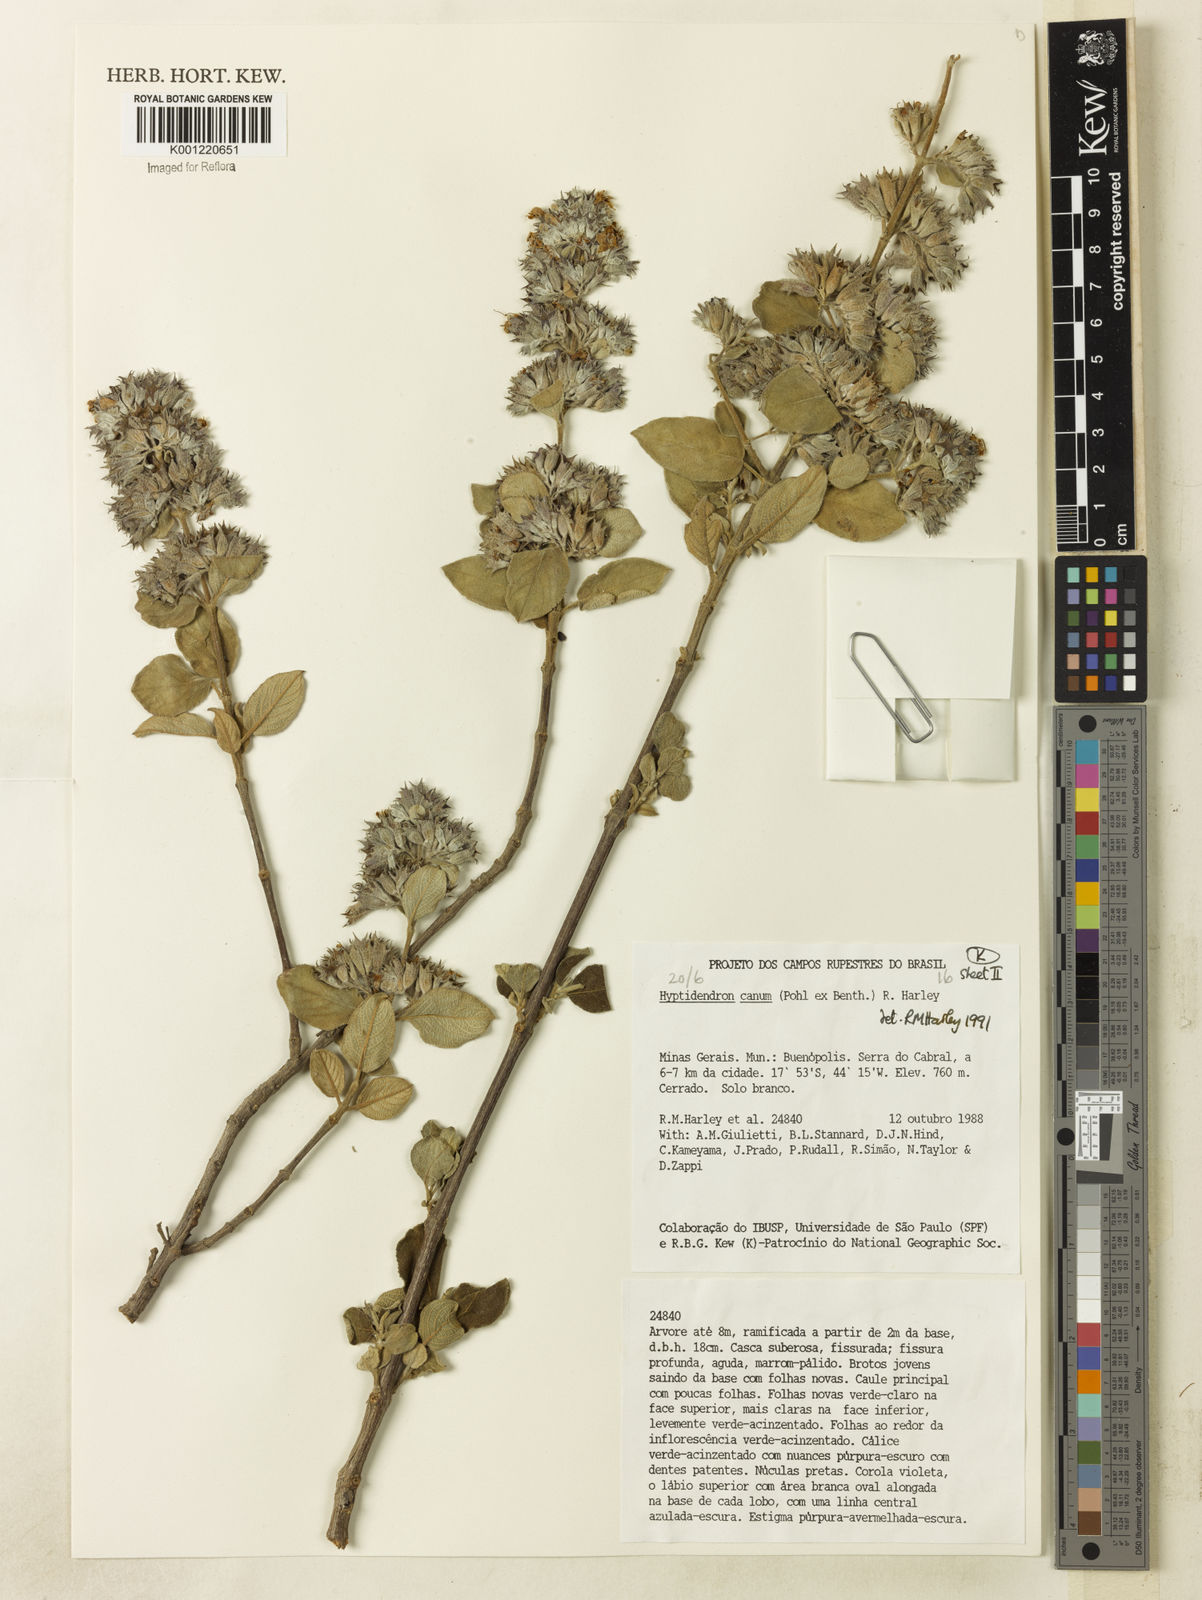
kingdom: Plantae
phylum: Tracheophyta
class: Magnoliopsida
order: Lamiales
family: Lamiaceae
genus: Hyptidendron
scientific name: Hyptidendron canum
